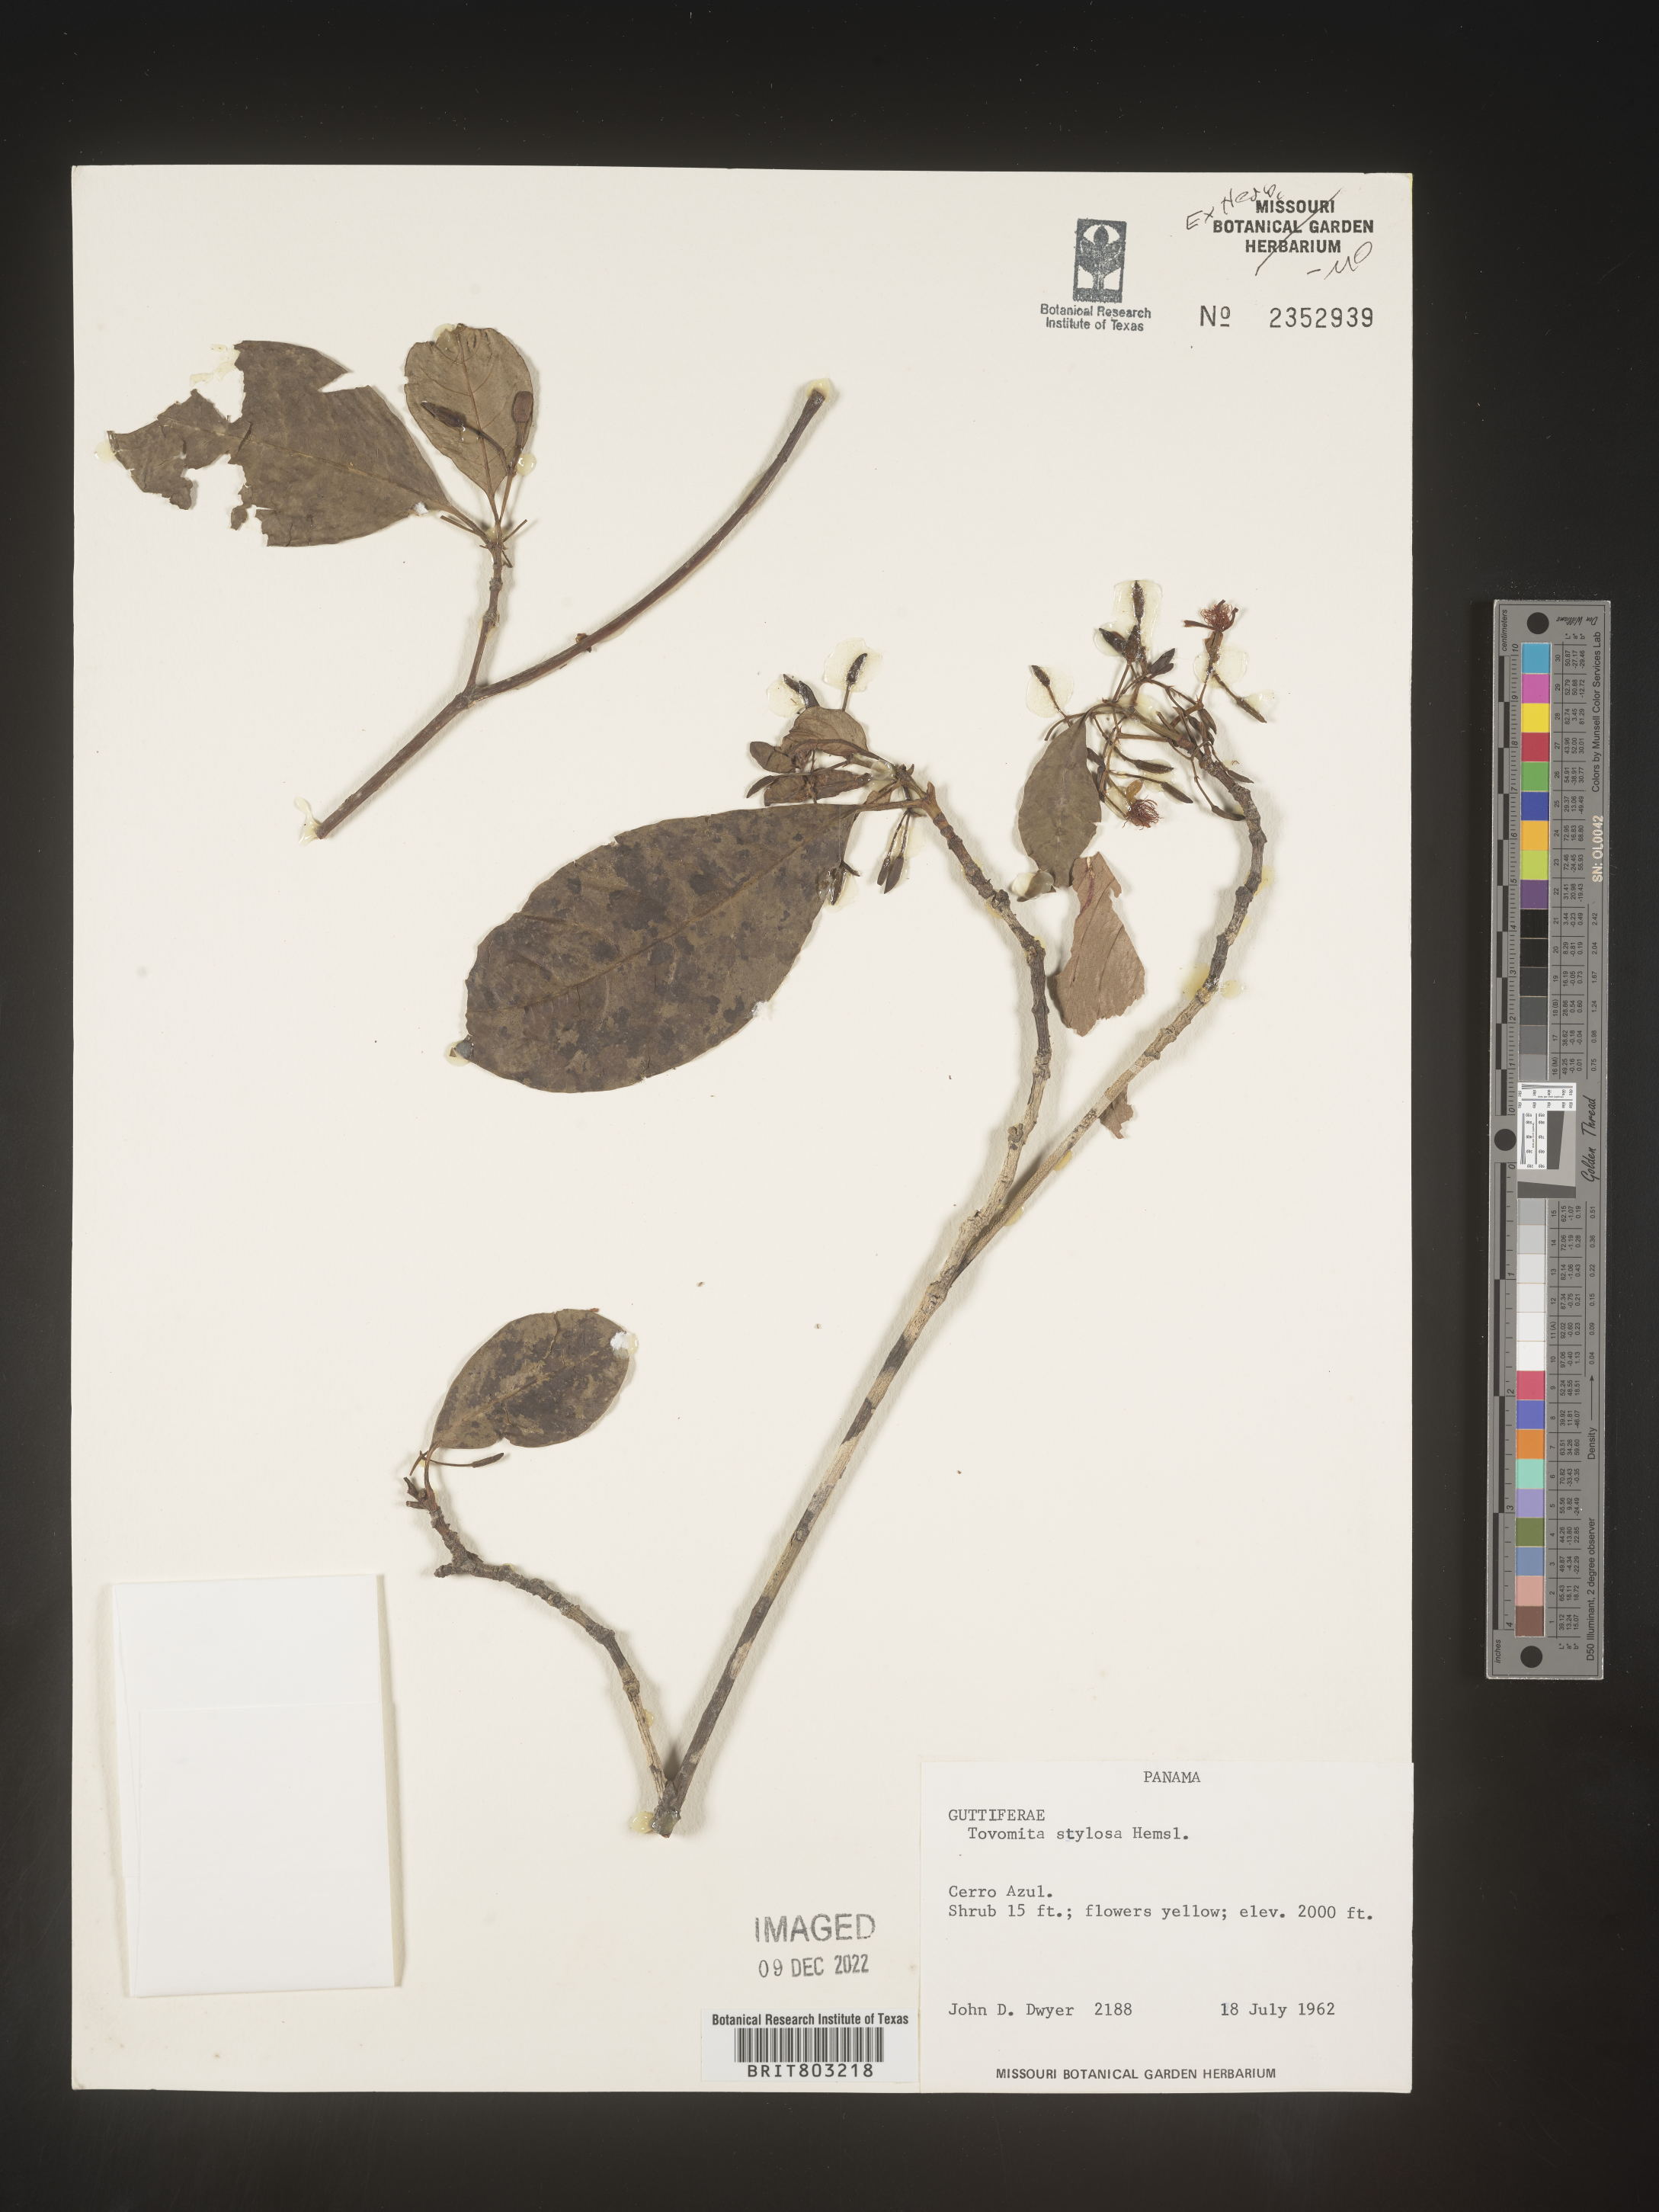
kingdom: Plantae
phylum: Tracheophyta
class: Magnoliopsida
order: Malpighiales
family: Clusiaceae
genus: Tovomita
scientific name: Tovomita
